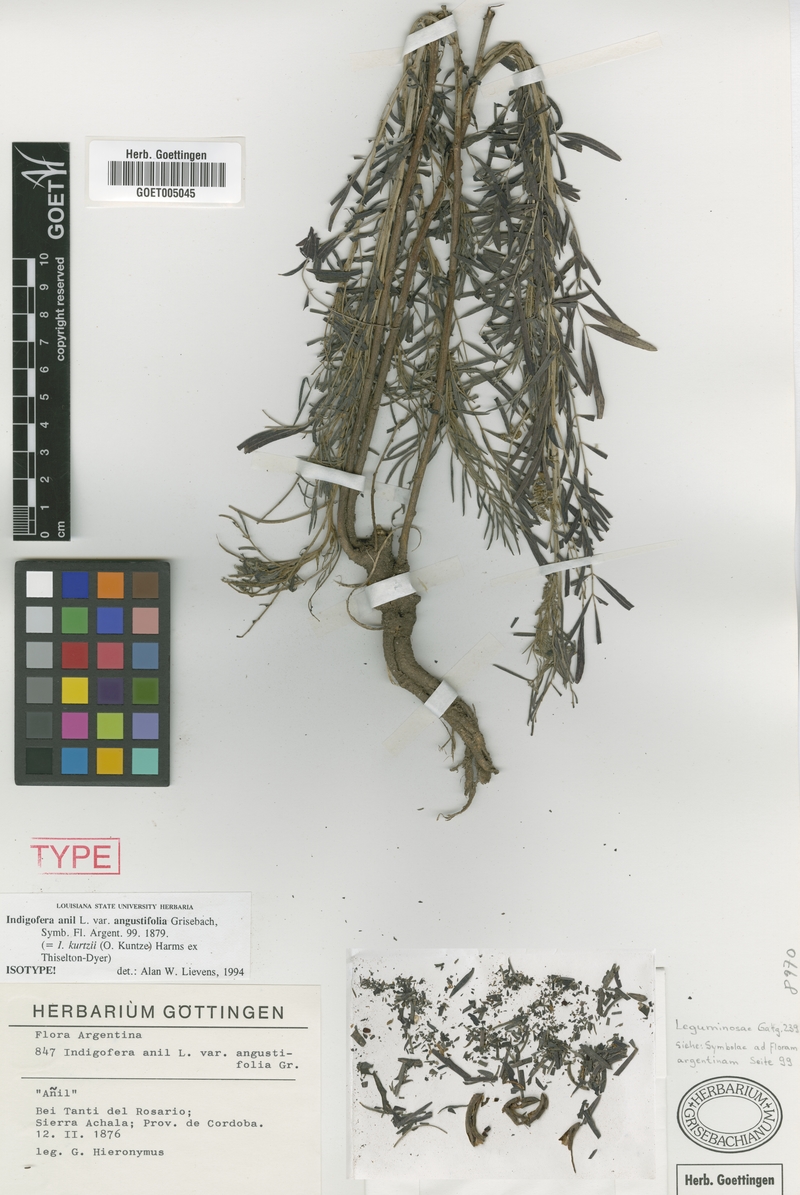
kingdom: Plantae
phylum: Tracheophyta
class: Magnoliopsida
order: Fabales
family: Fabaceae
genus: Indigofera
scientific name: Indigofera kurtzii
